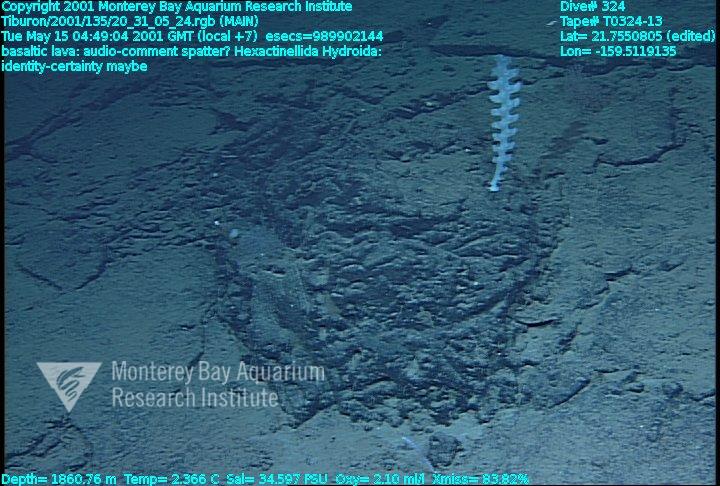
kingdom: Animalia
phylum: Porifera
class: Hexactinellida
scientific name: Hexactinellida
